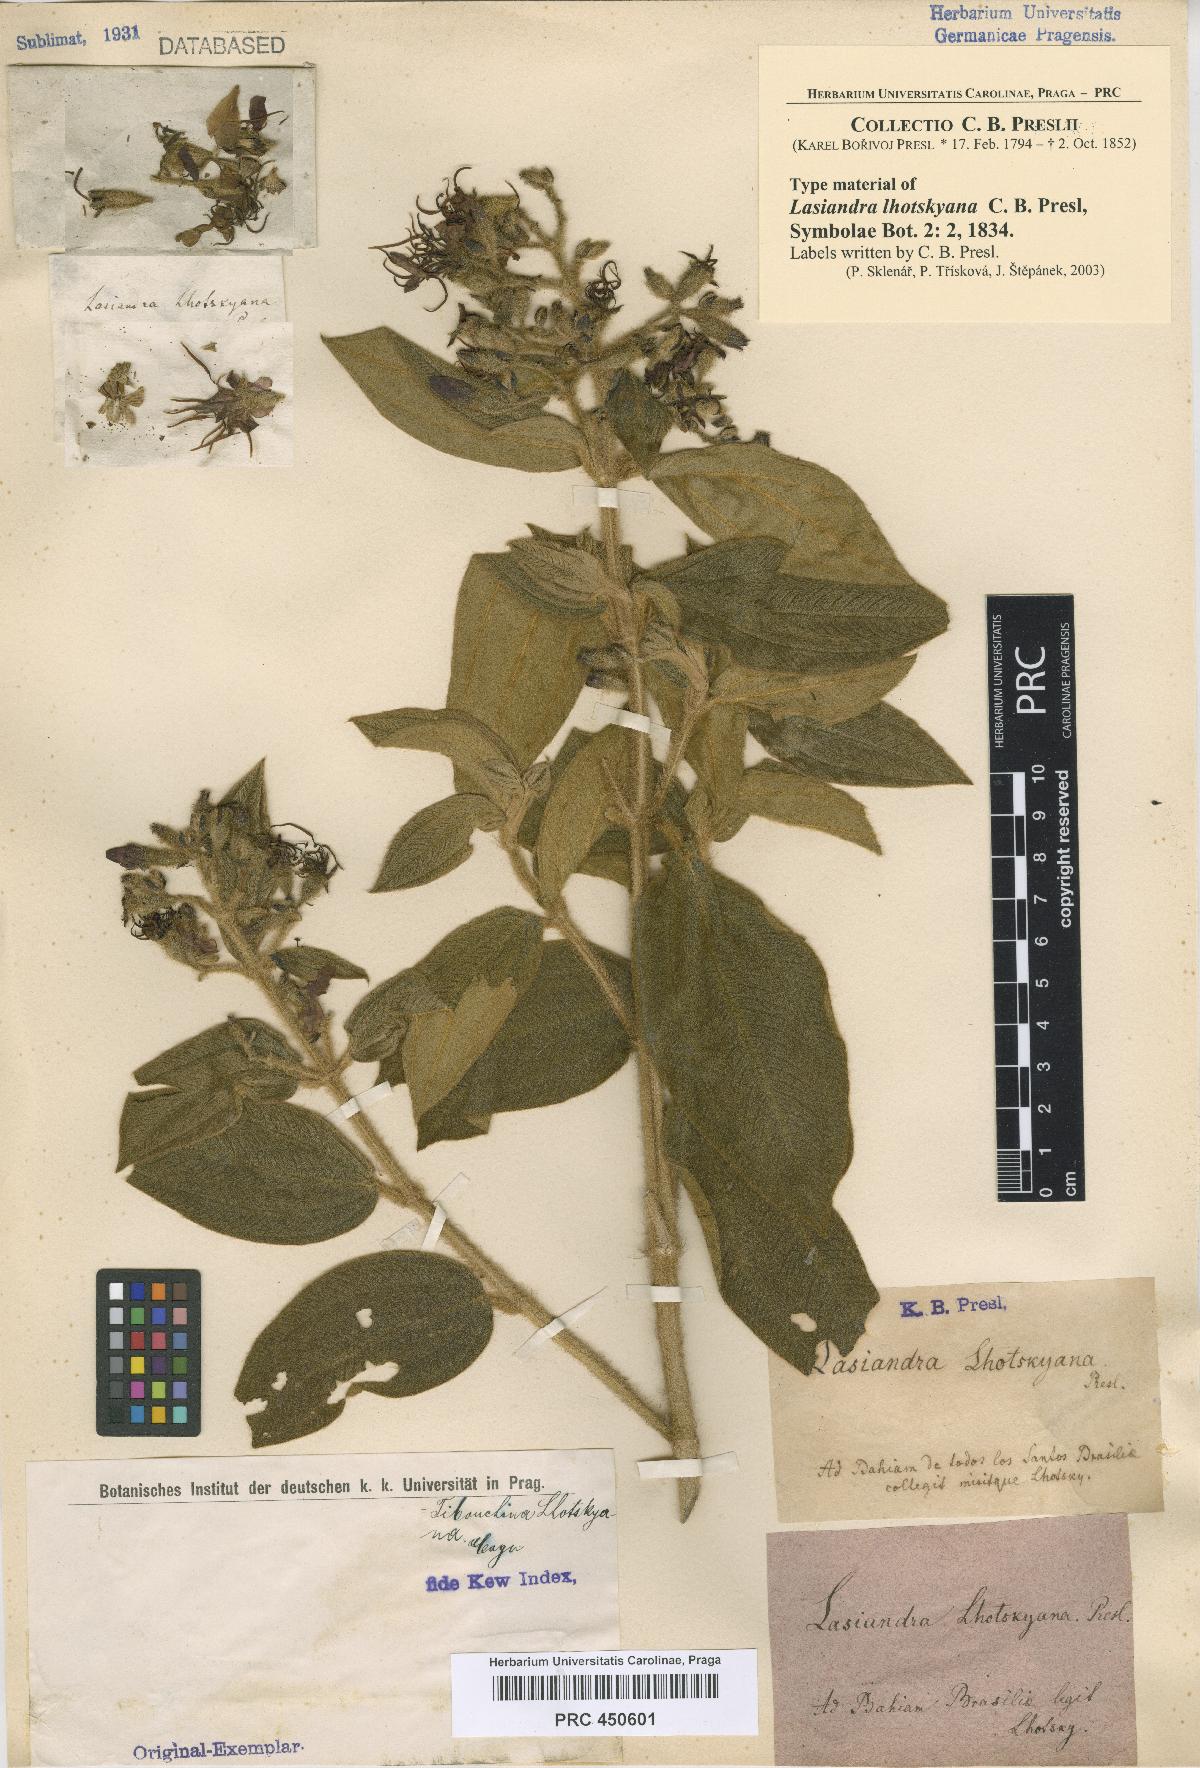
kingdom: Plantae
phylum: Tracheophyta
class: Magnoliopsida
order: Myrtales
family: Melastomataceae
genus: Chaetogastra
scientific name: Chaetogastra lhotskyana
